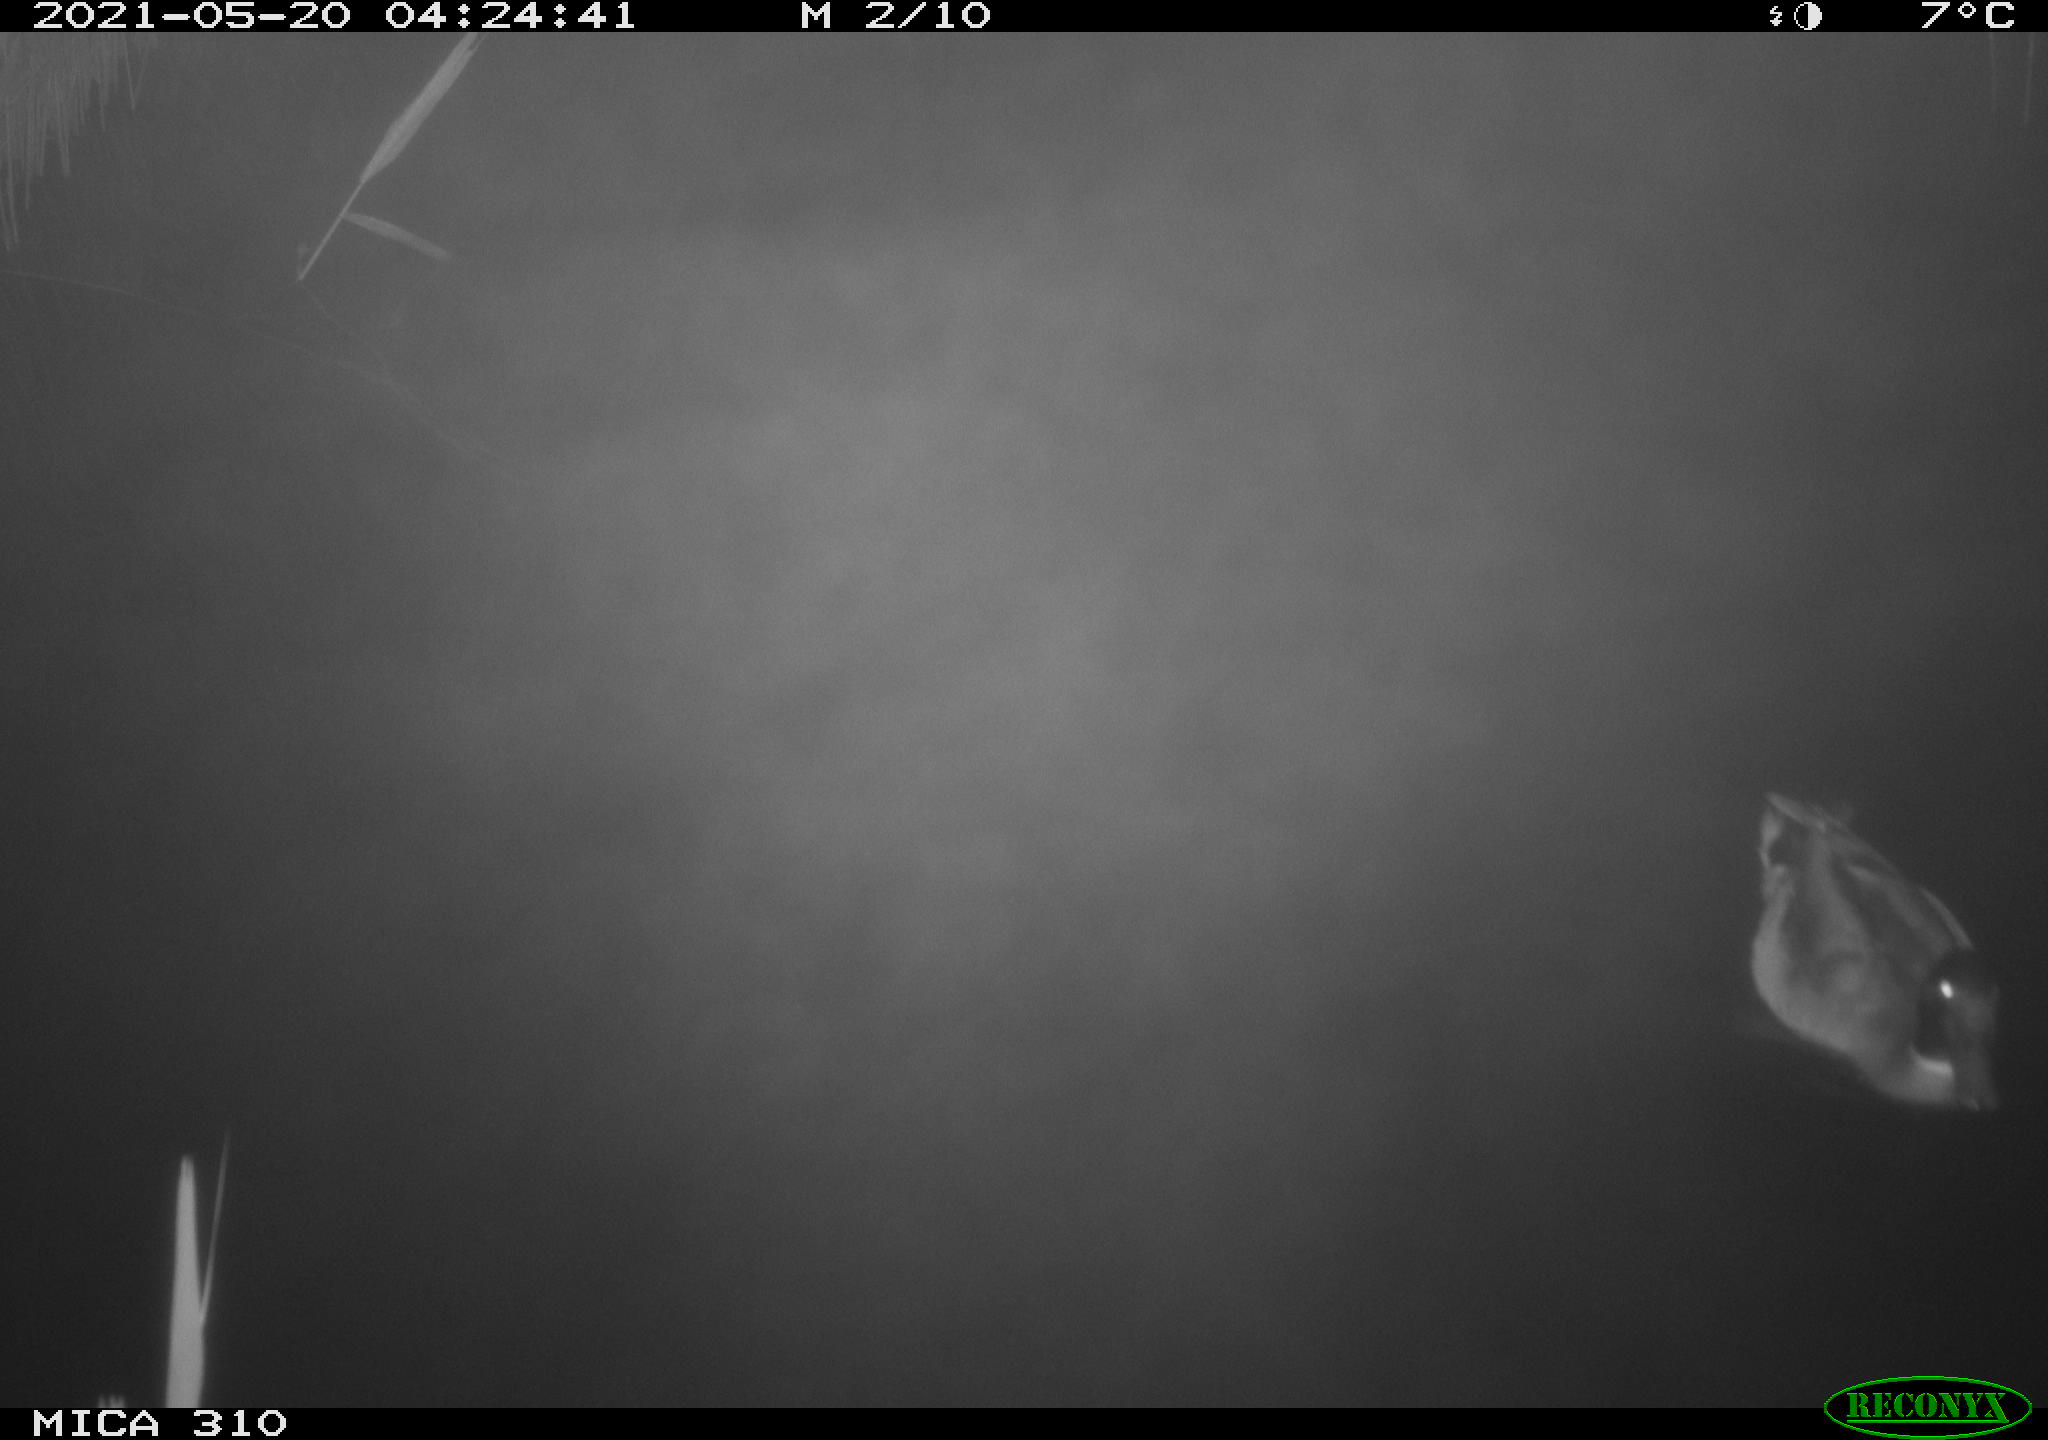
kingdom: Animalia
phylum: Chordata
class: Aves
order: Anseriformes
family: Anatidae
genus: Anas
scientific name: Anas platyrhynchos
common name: Mallard
